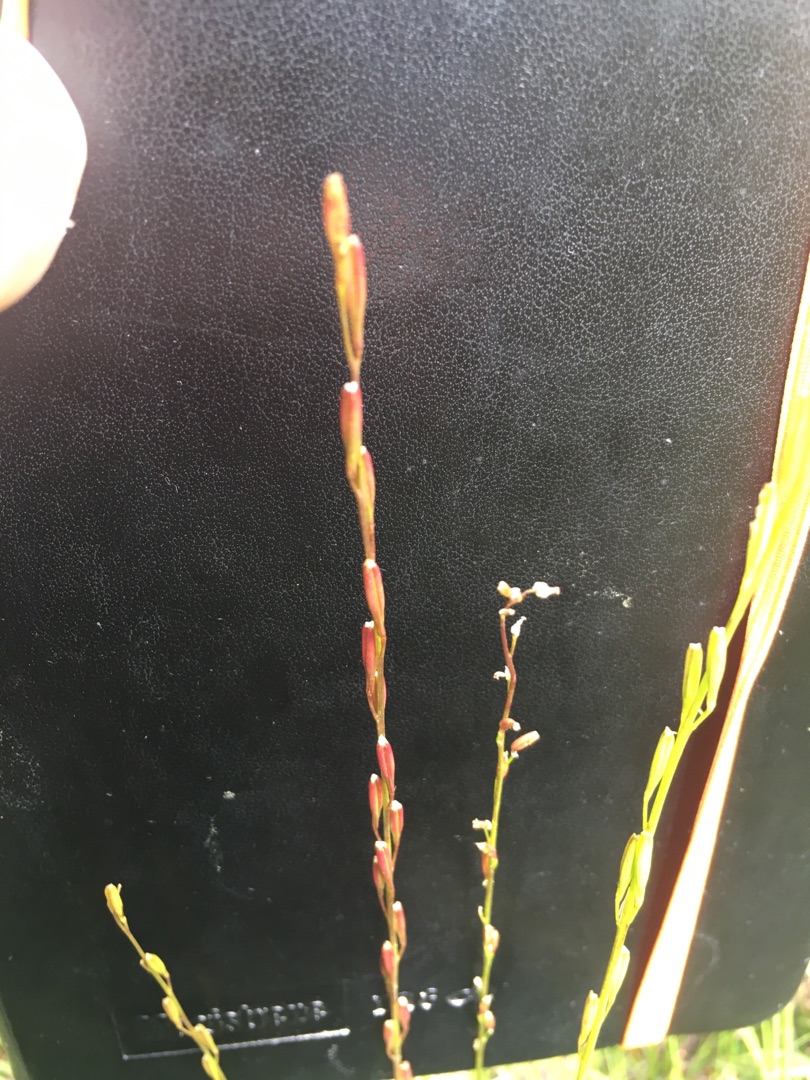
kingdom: Plantae
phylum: Tracheophyta
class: Liliopsida
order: Alismatales
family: Juncaginaceae
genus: Triglochin
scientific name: Triglochin palustris
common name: Kær-trehage
